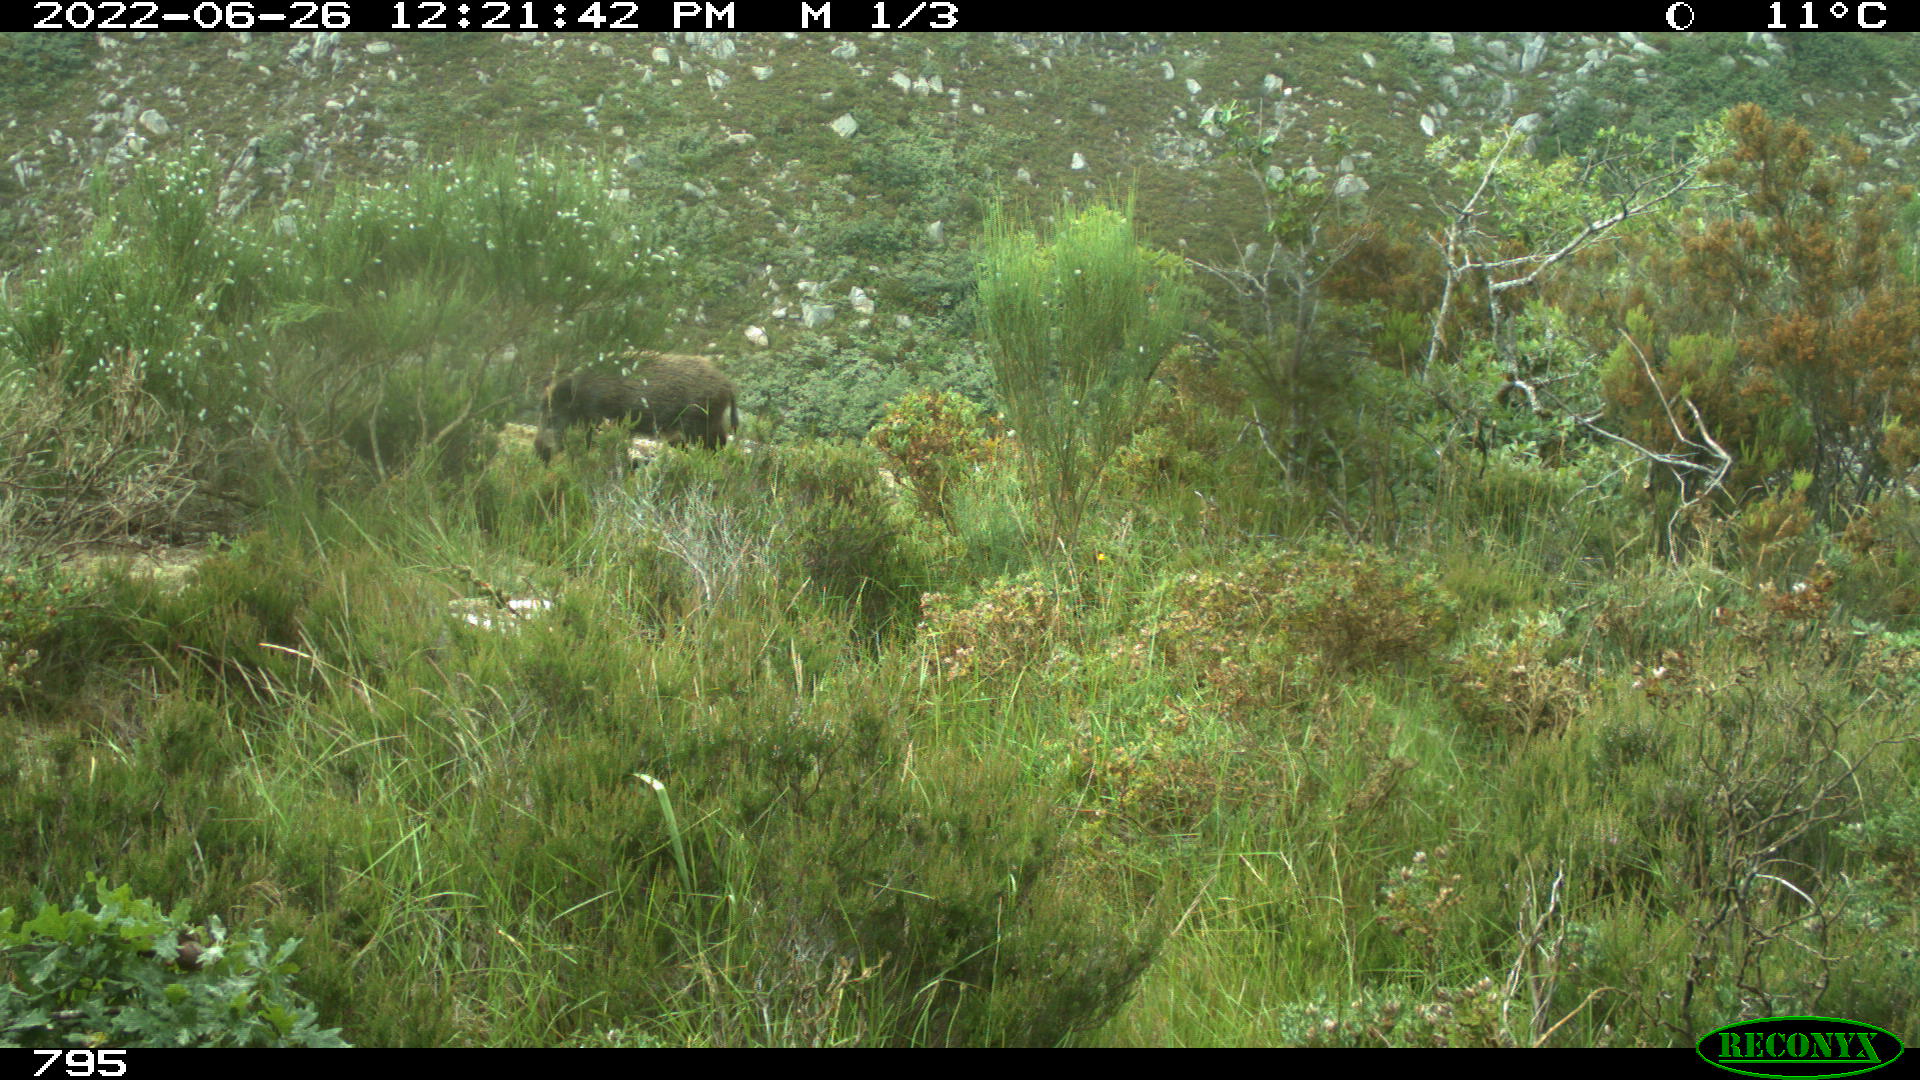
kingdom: Animalia
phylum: Chordata
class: Mammalia
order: Artiodactyla
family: Suidae
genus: Sus
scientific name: Sus scrofa
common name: Wild boar
